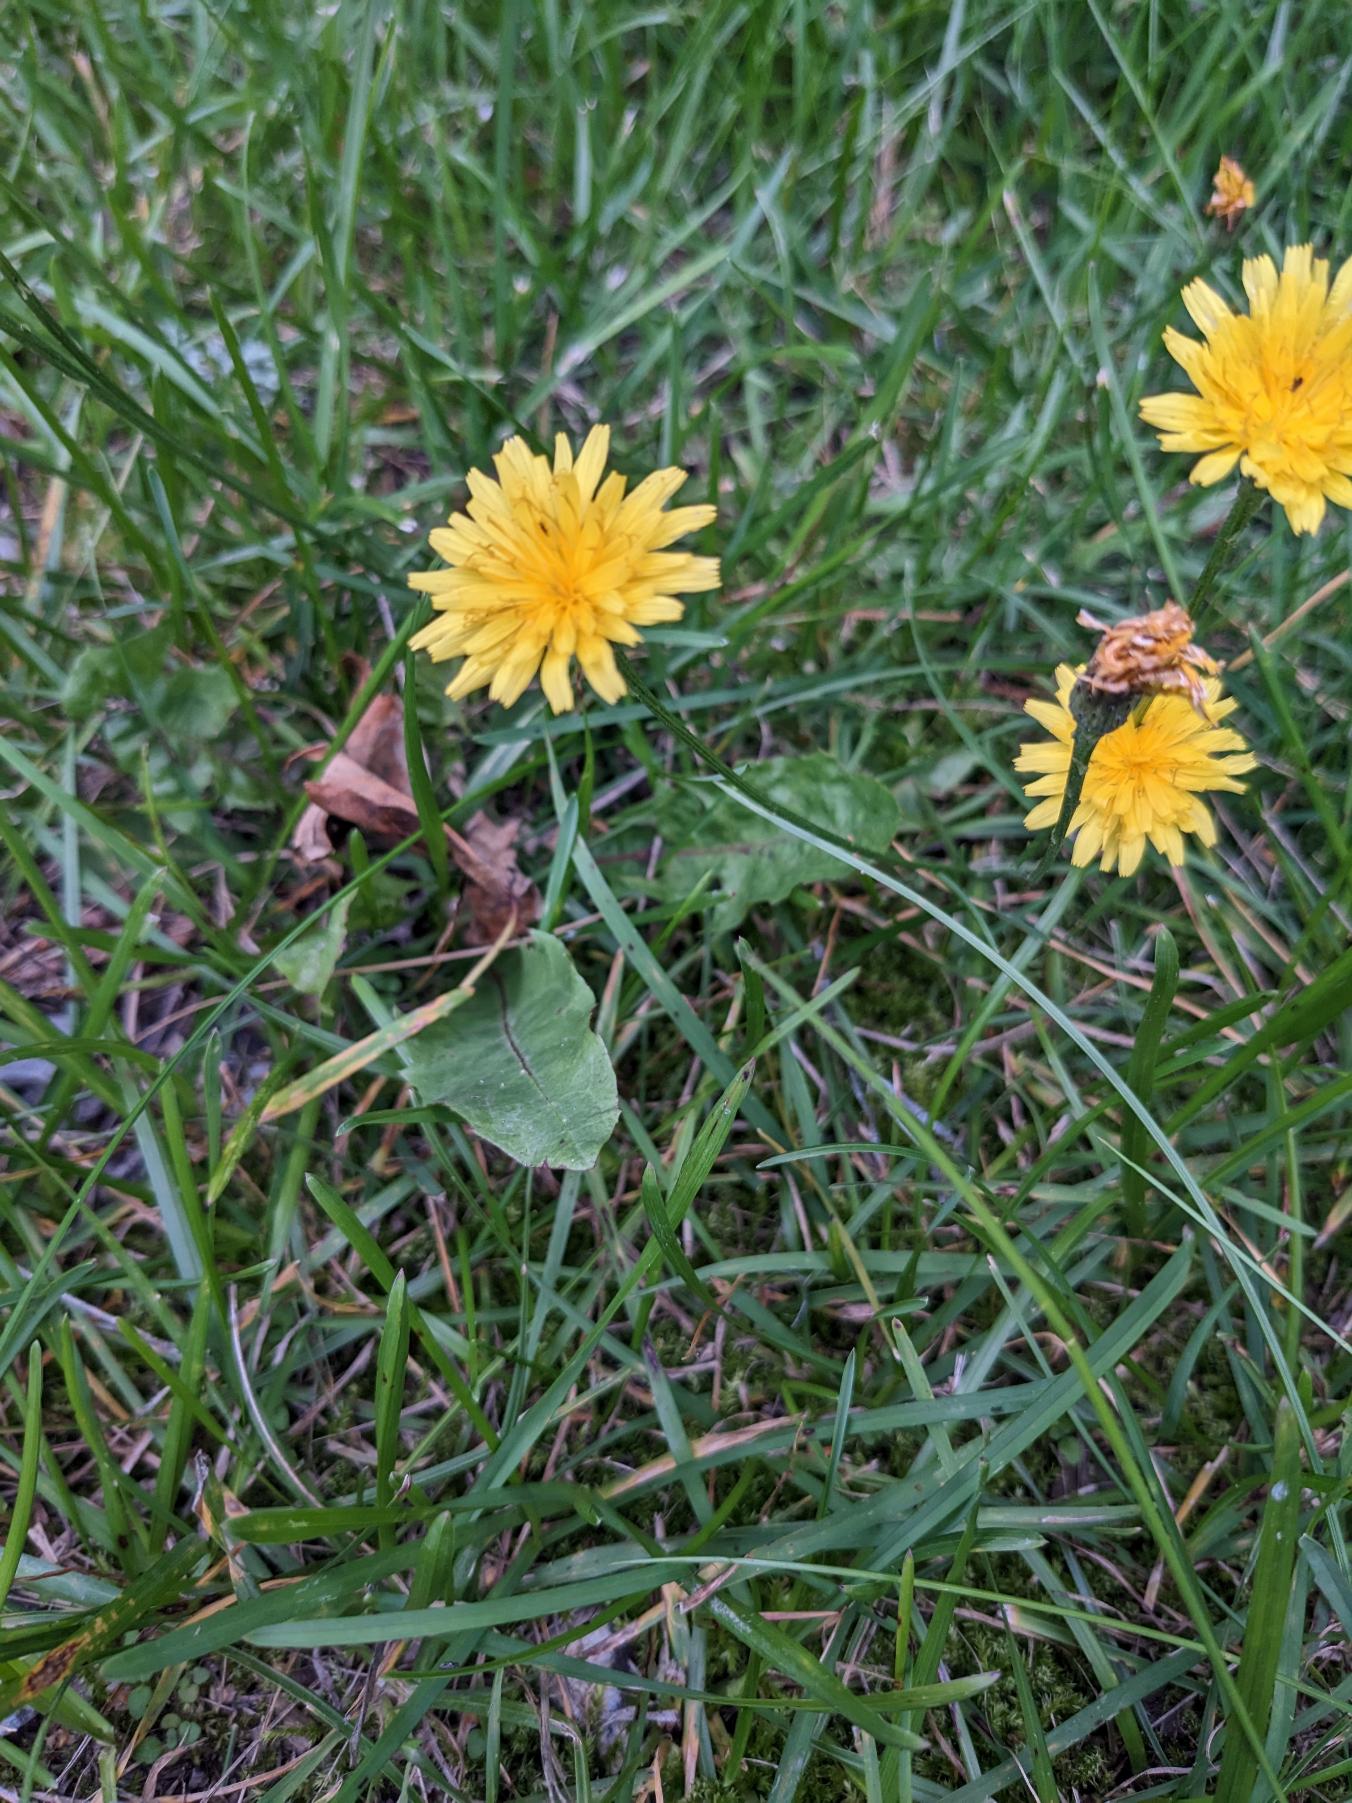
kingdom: Plantae
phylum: Tracheophyta
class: Magnoliopsida
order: Asterales
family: Asteraceae
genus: Taraxacum
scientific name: Taraxacum
